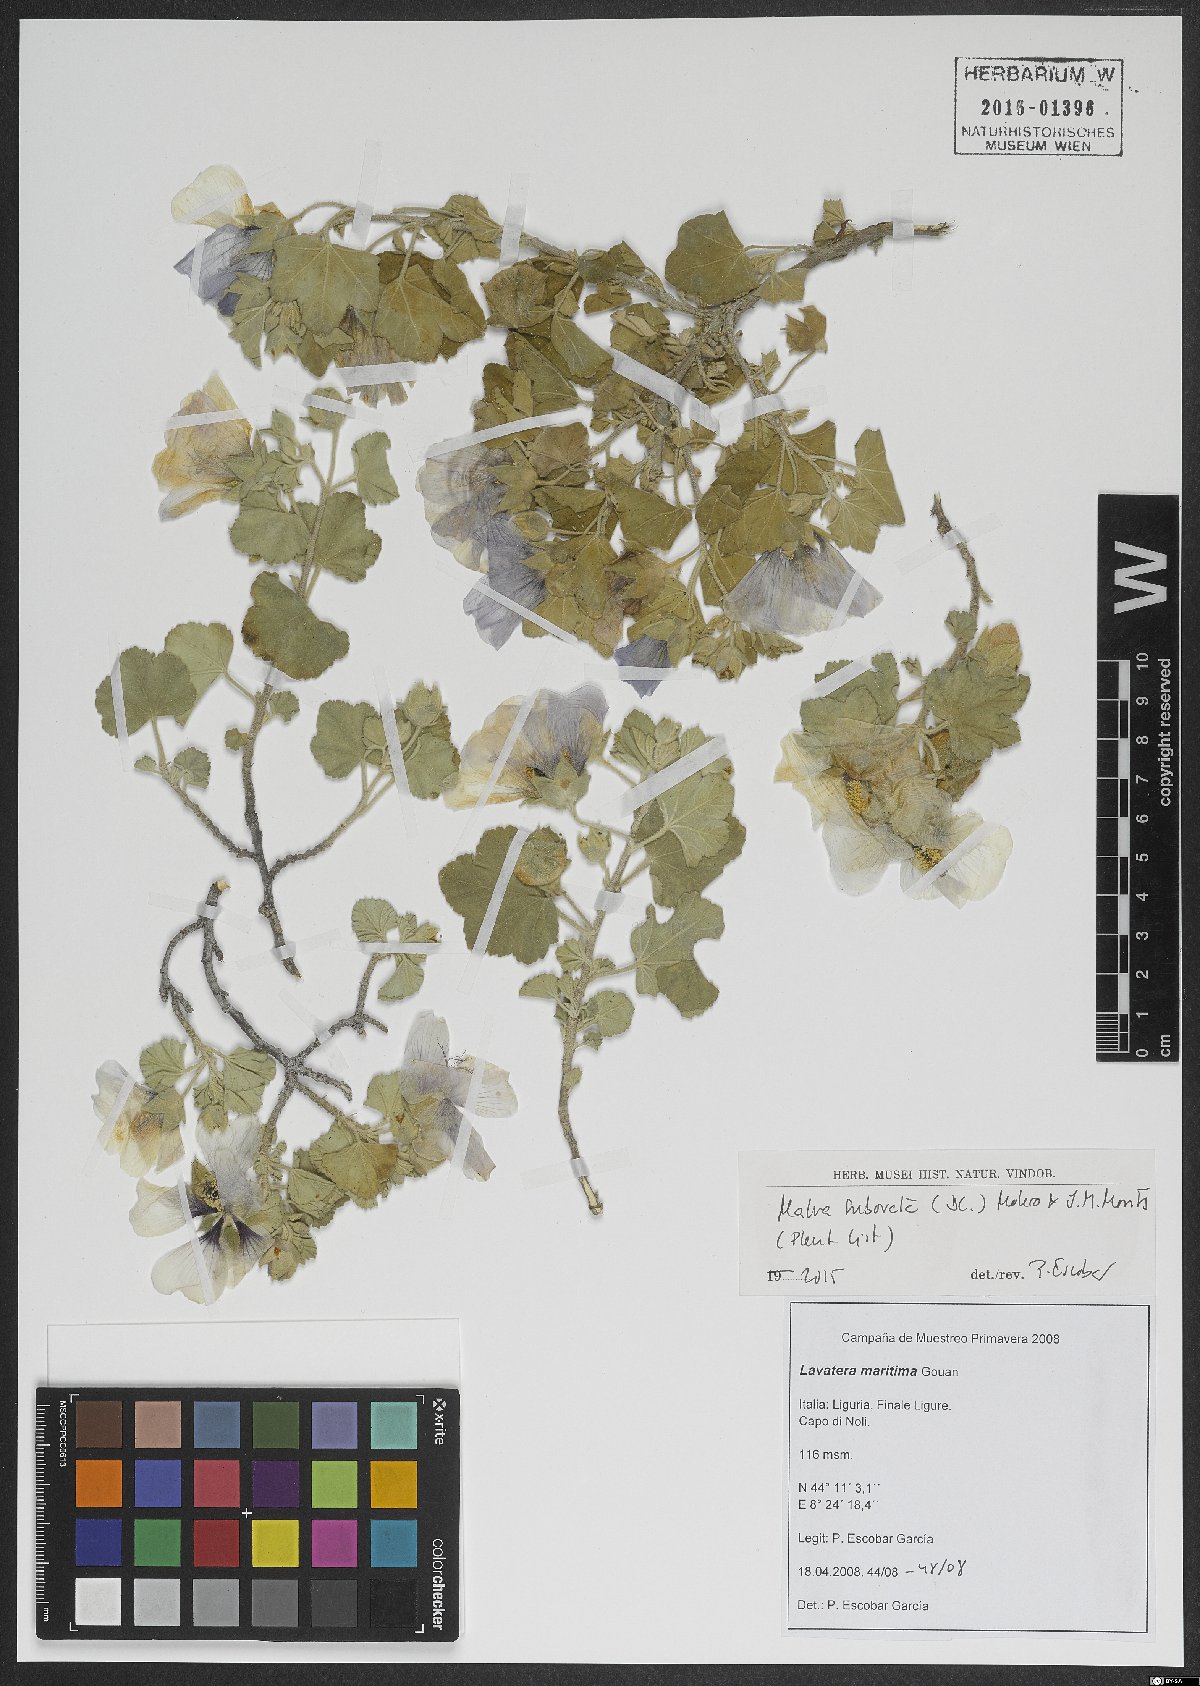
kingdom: Plantae
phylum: Tracheophyta
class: Magnoliopsida
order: Malvales
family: Malvaceae
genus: Malva
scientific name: Malva subovata
